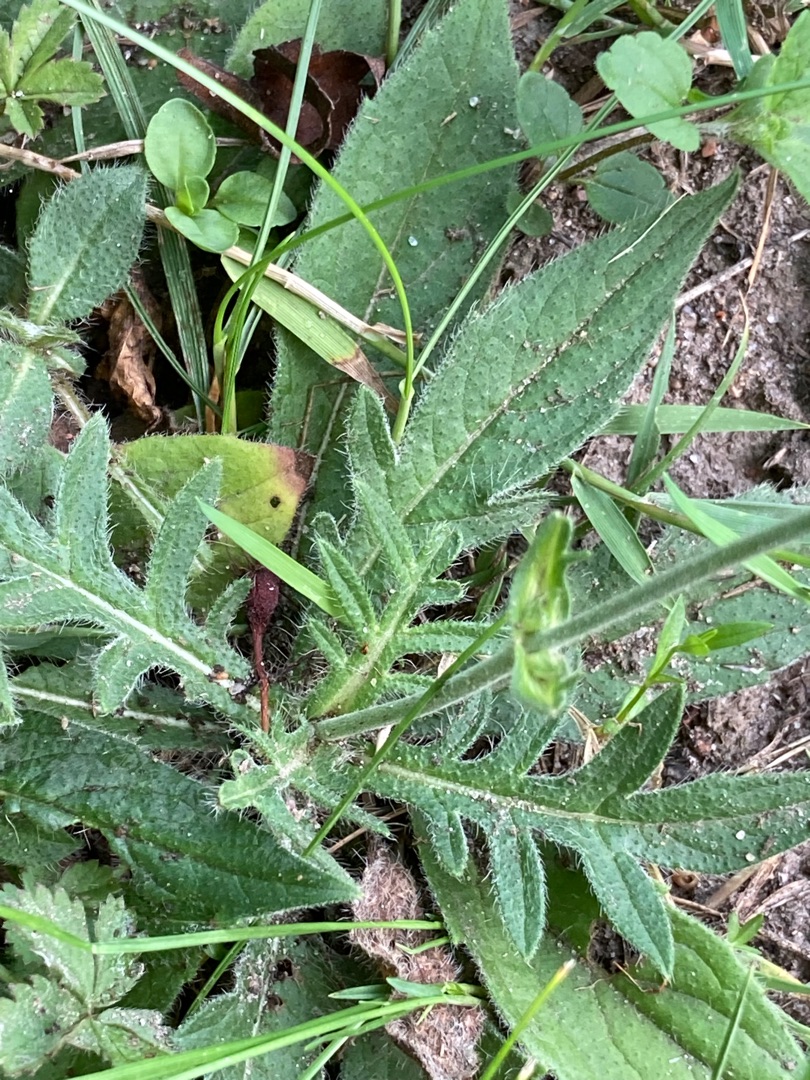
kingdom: Plantae
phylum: Tracheophyta
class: Magnoliopsida
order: Dipsacales
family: Caprifoliaceae
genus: Knautia
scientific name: Knautia arvensis
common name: Blåhat
